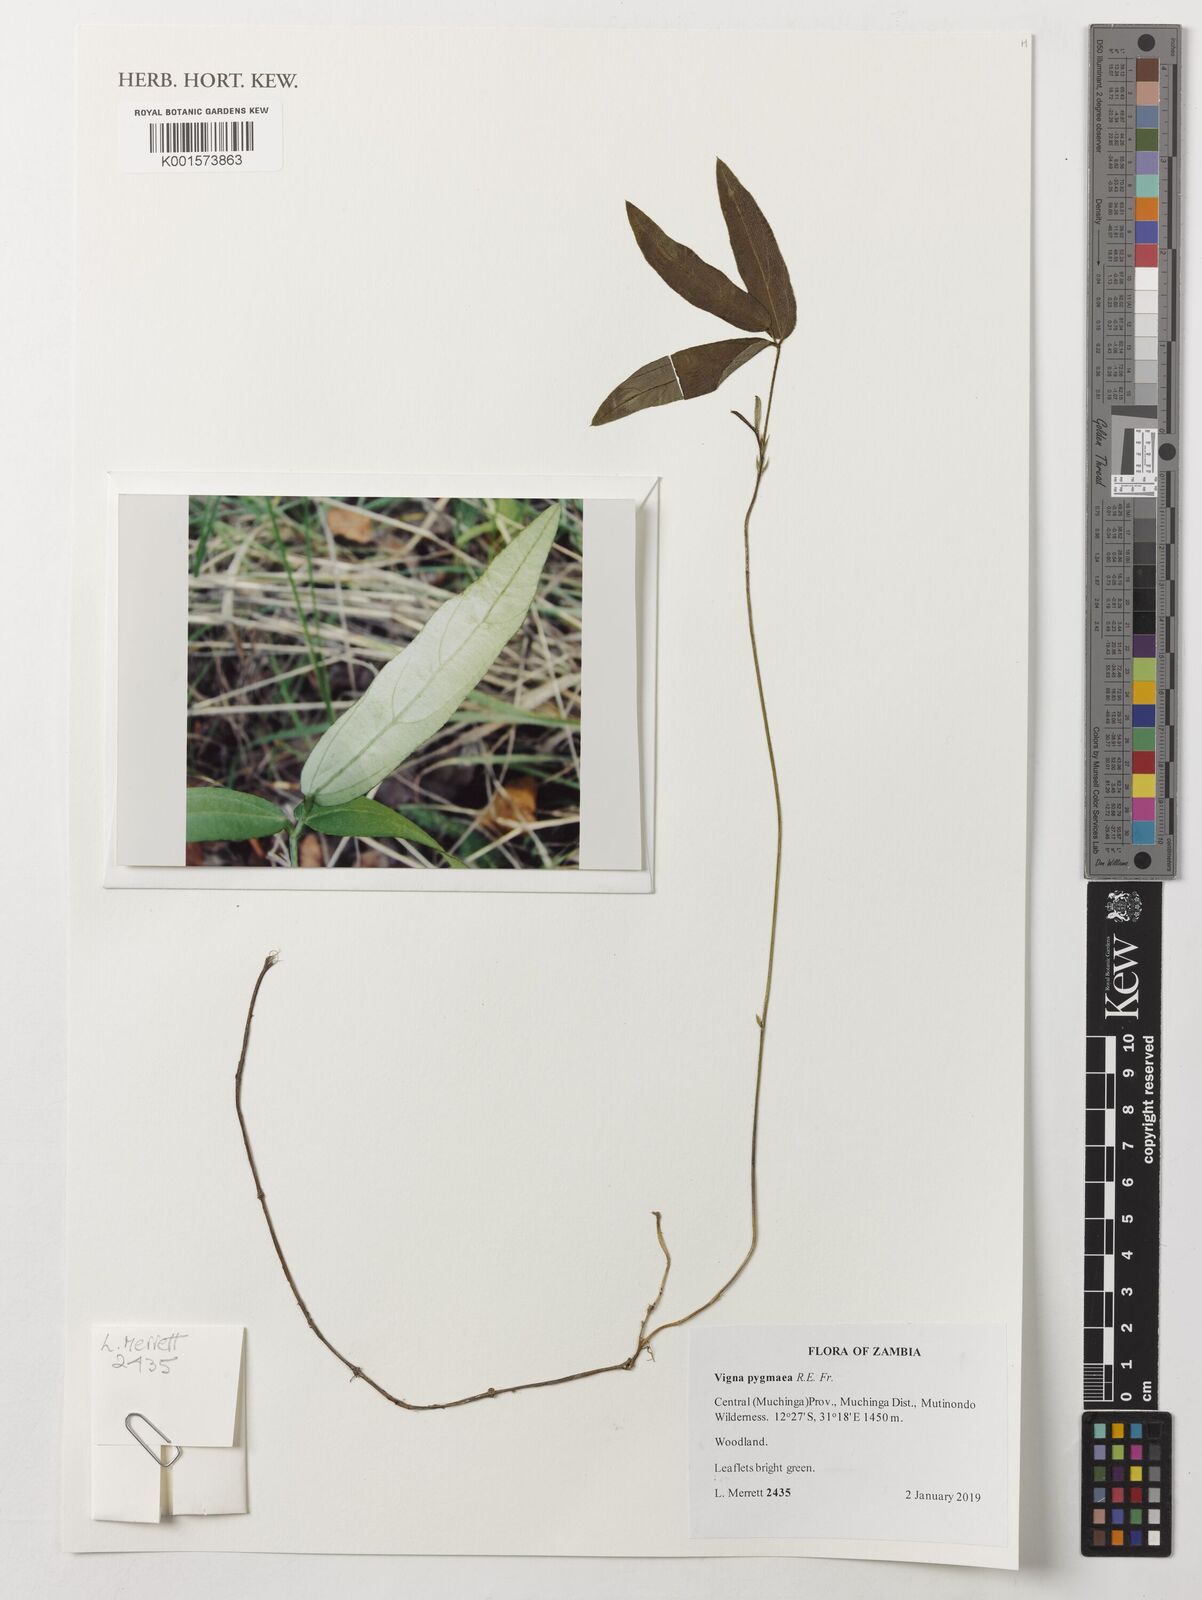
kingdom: Plantae
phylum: Tracheophyta
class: Magnoliopsida
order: Fabales
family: Fabaceae
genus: Vigna
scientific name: Vigna pygmaea
